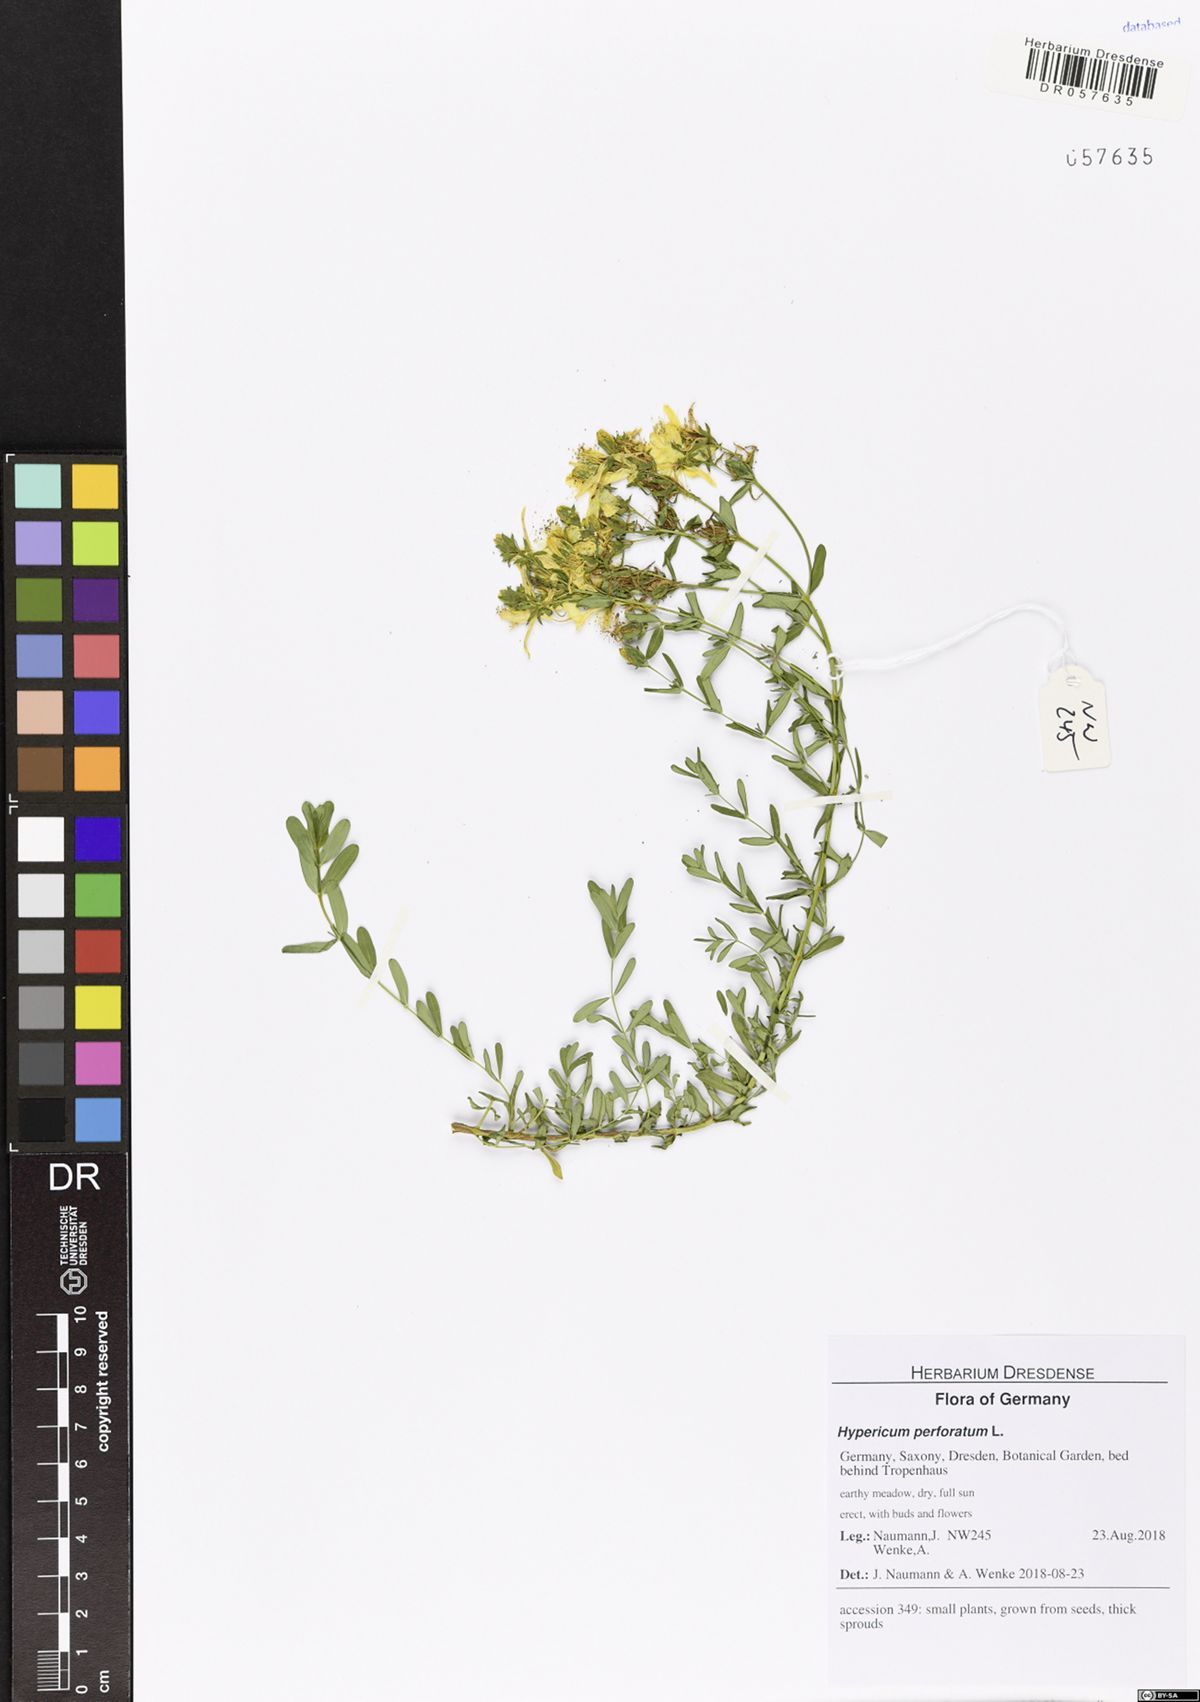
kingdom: Plantae
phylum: Tracheophyta
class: Magnoliopsida
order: Malpighiales
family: Hypericaceae
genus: Hypericum
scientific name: Hypericum perforatum
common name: Common st. johnswort
